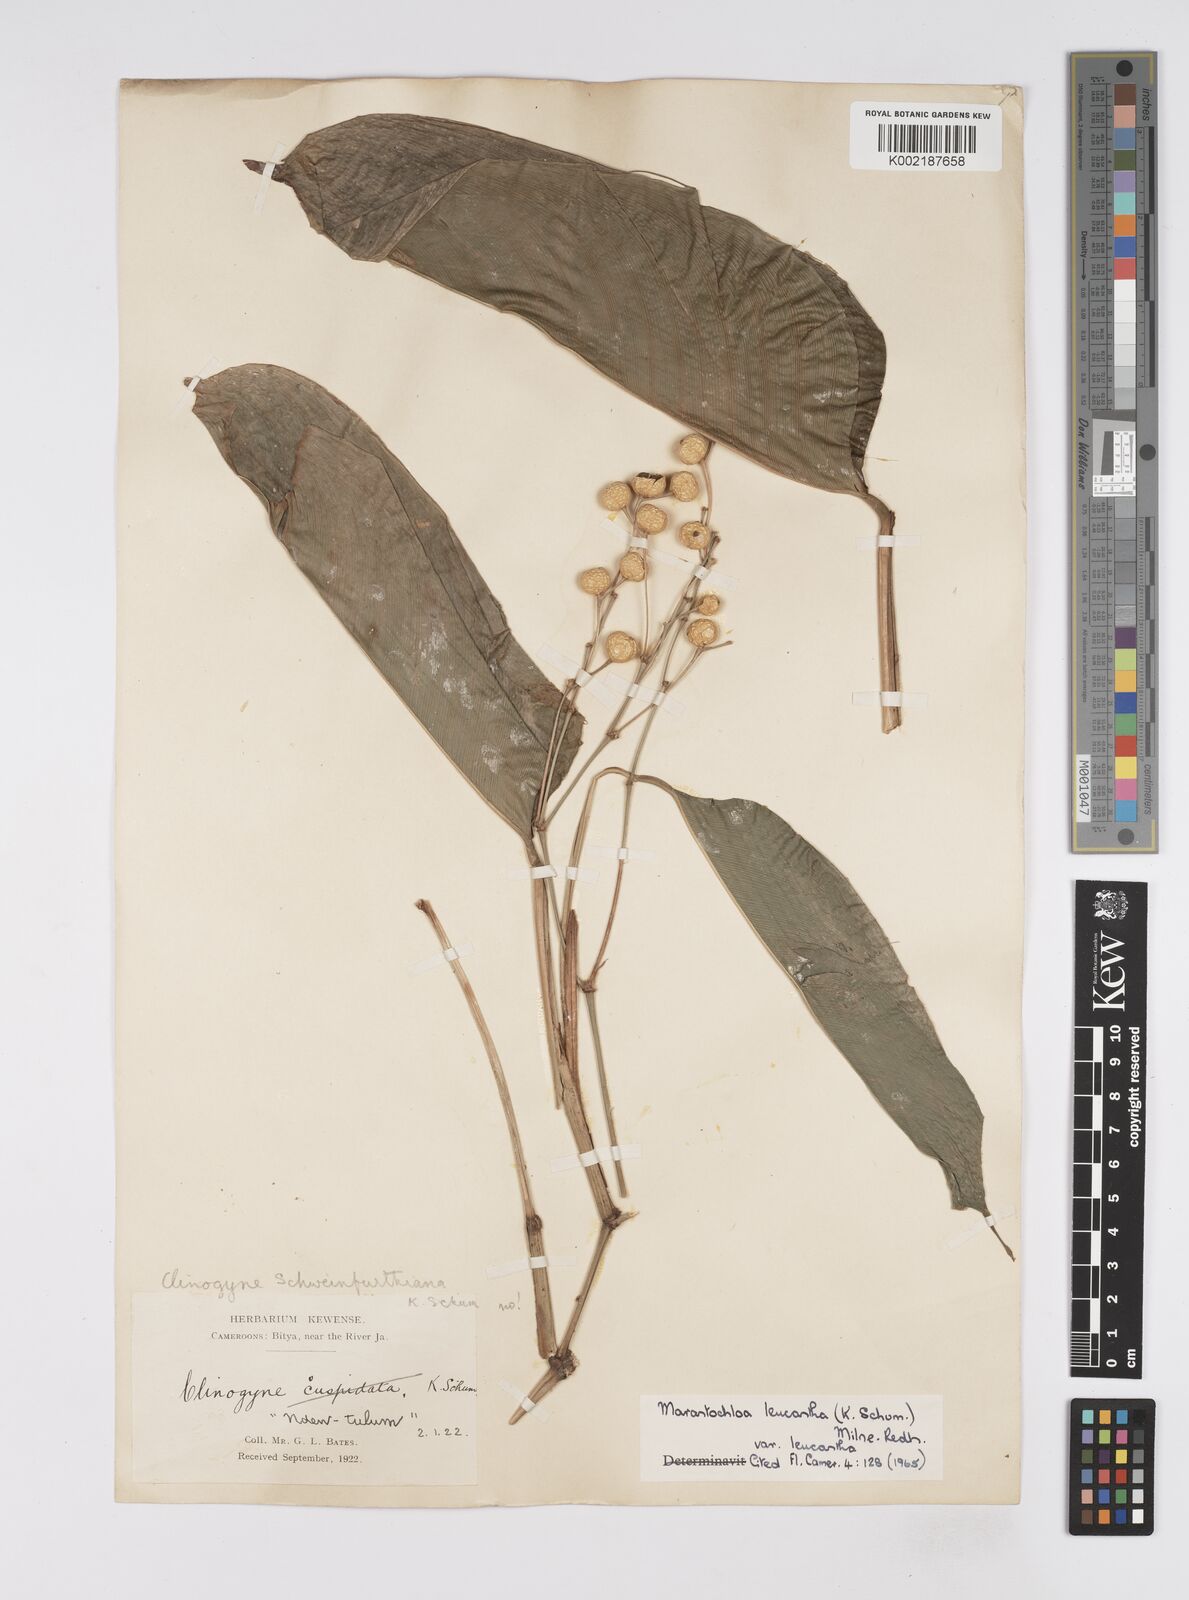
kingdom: Plantae
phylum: Tracheophyta
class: Liliopsida
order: Zingiberales
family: Marantaceae
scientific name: Marantaceae
